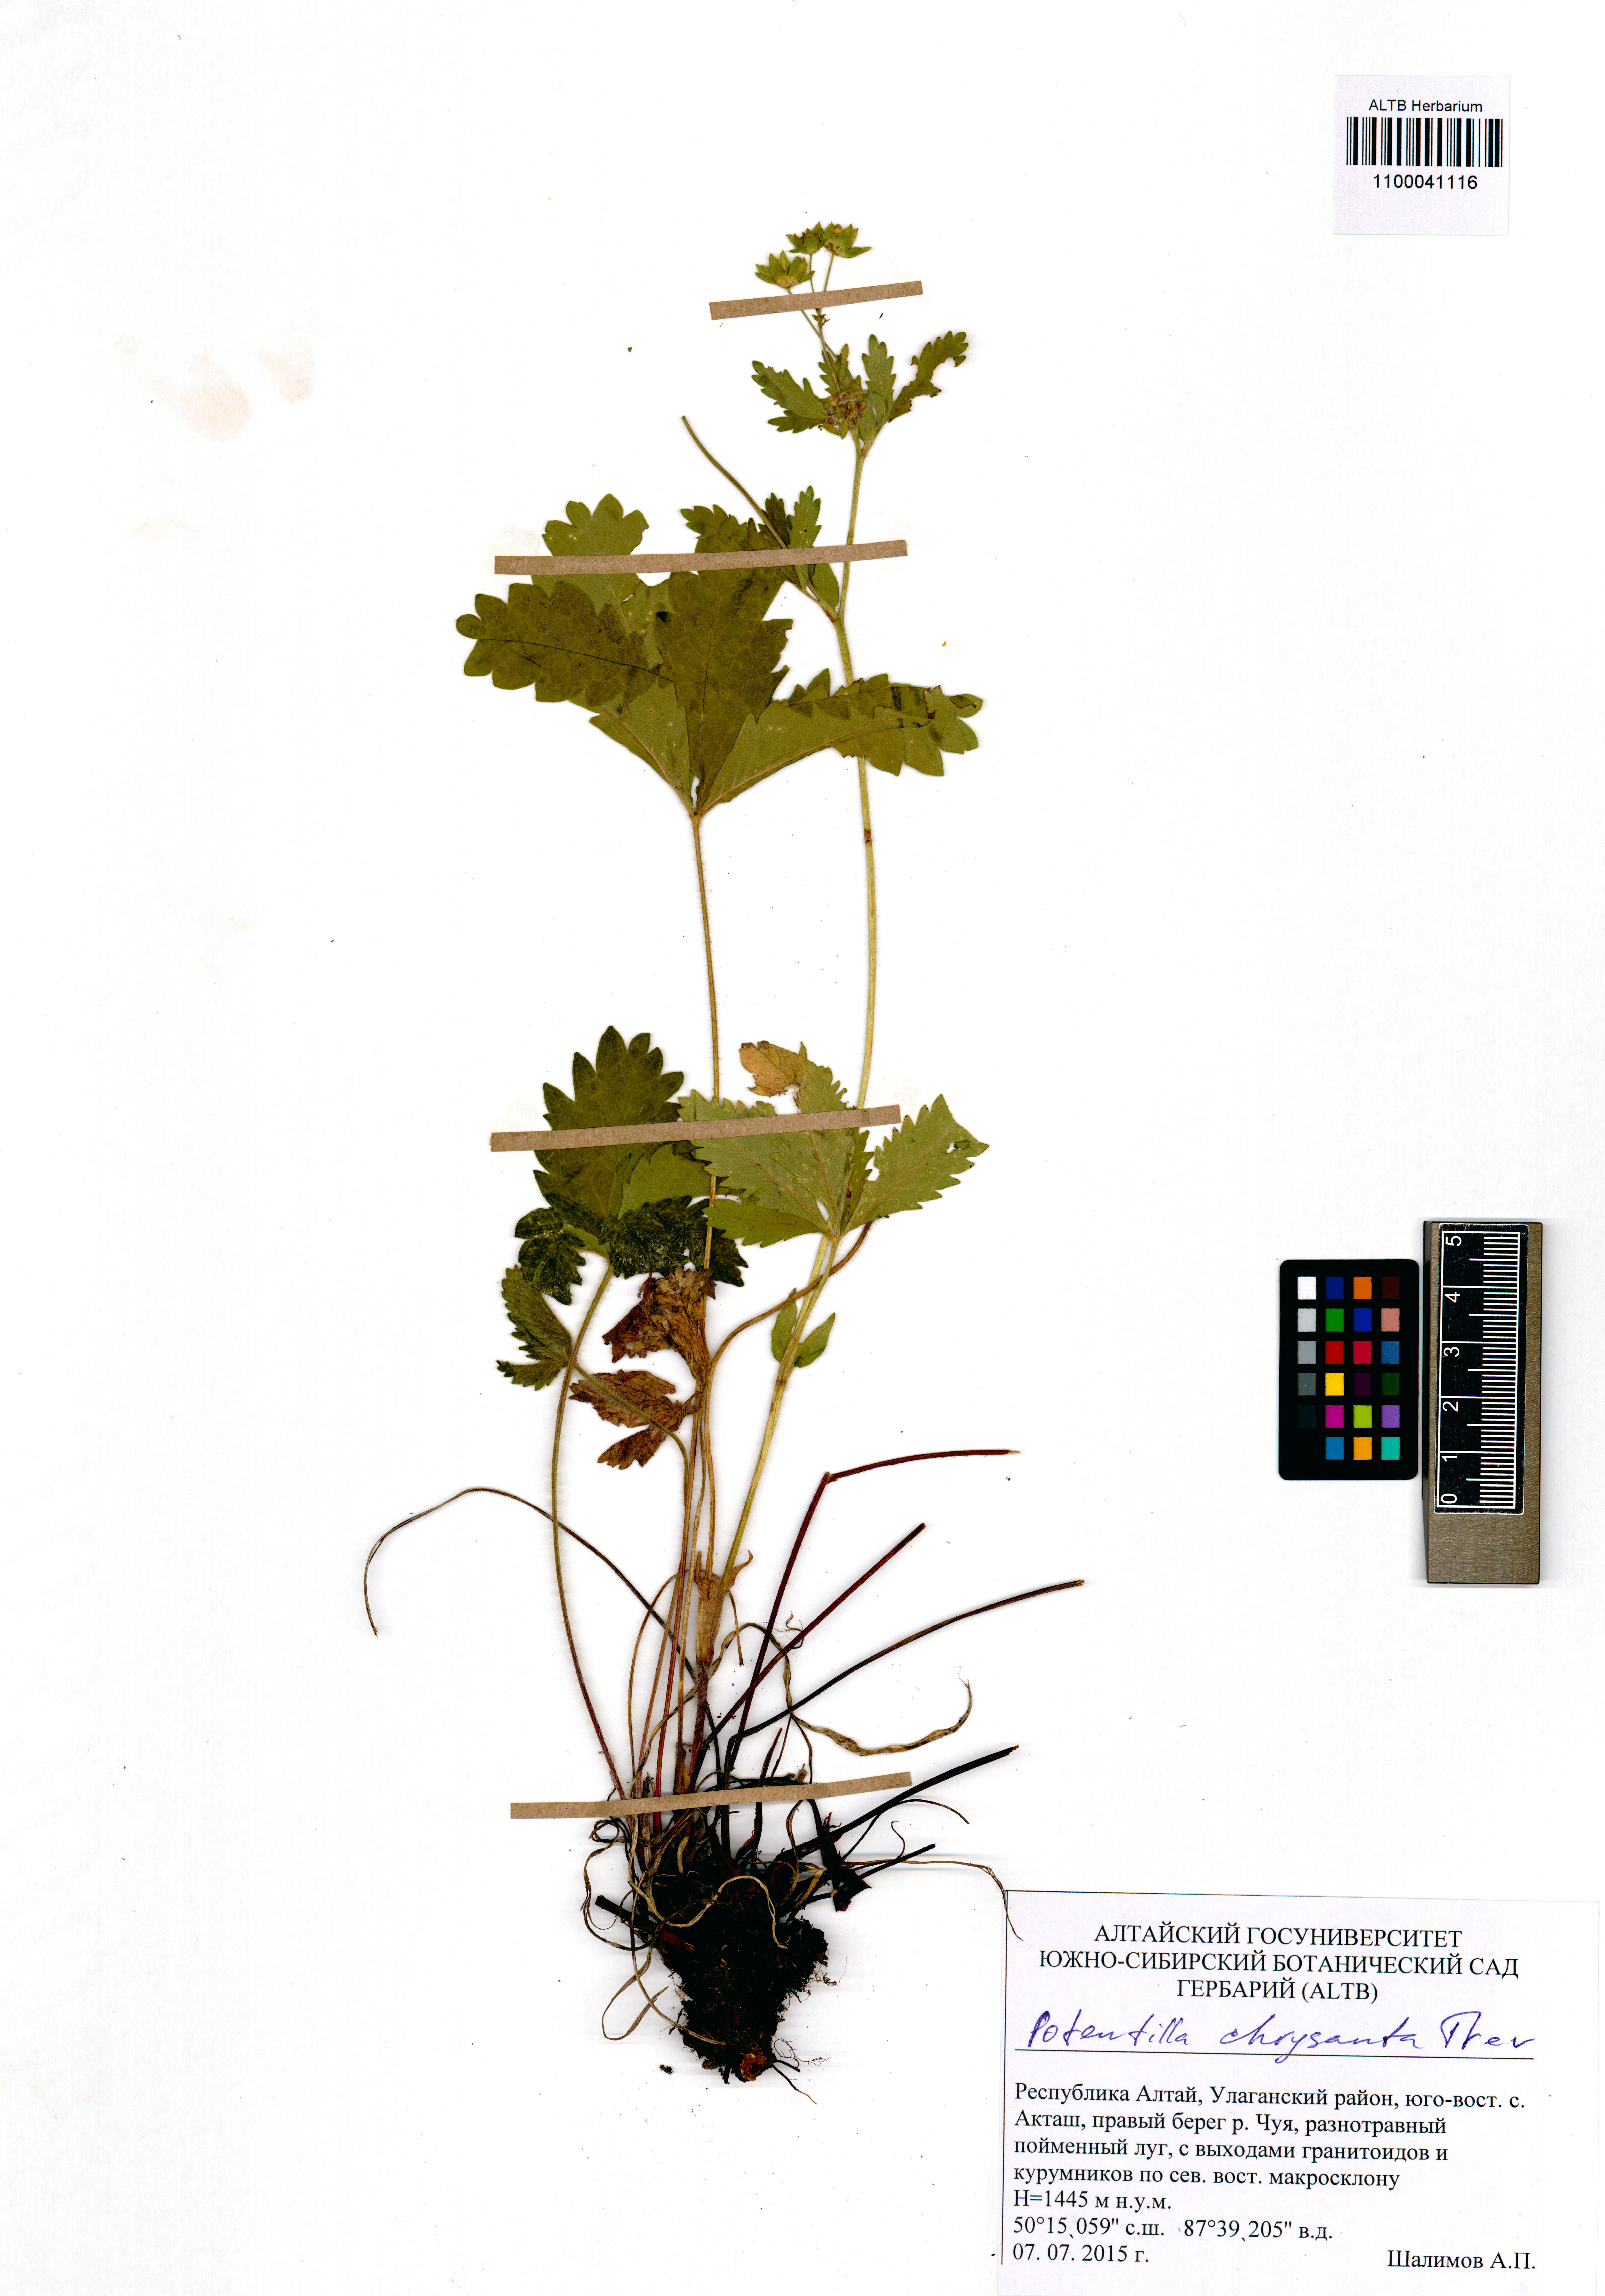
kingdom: Plantae
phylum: Tracheophyta
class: Magnoliopsida
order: Rosales
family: Rosaceae
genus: Potentilla
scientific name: Potentilla chrysantha
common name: Thuringian cinquefoil
